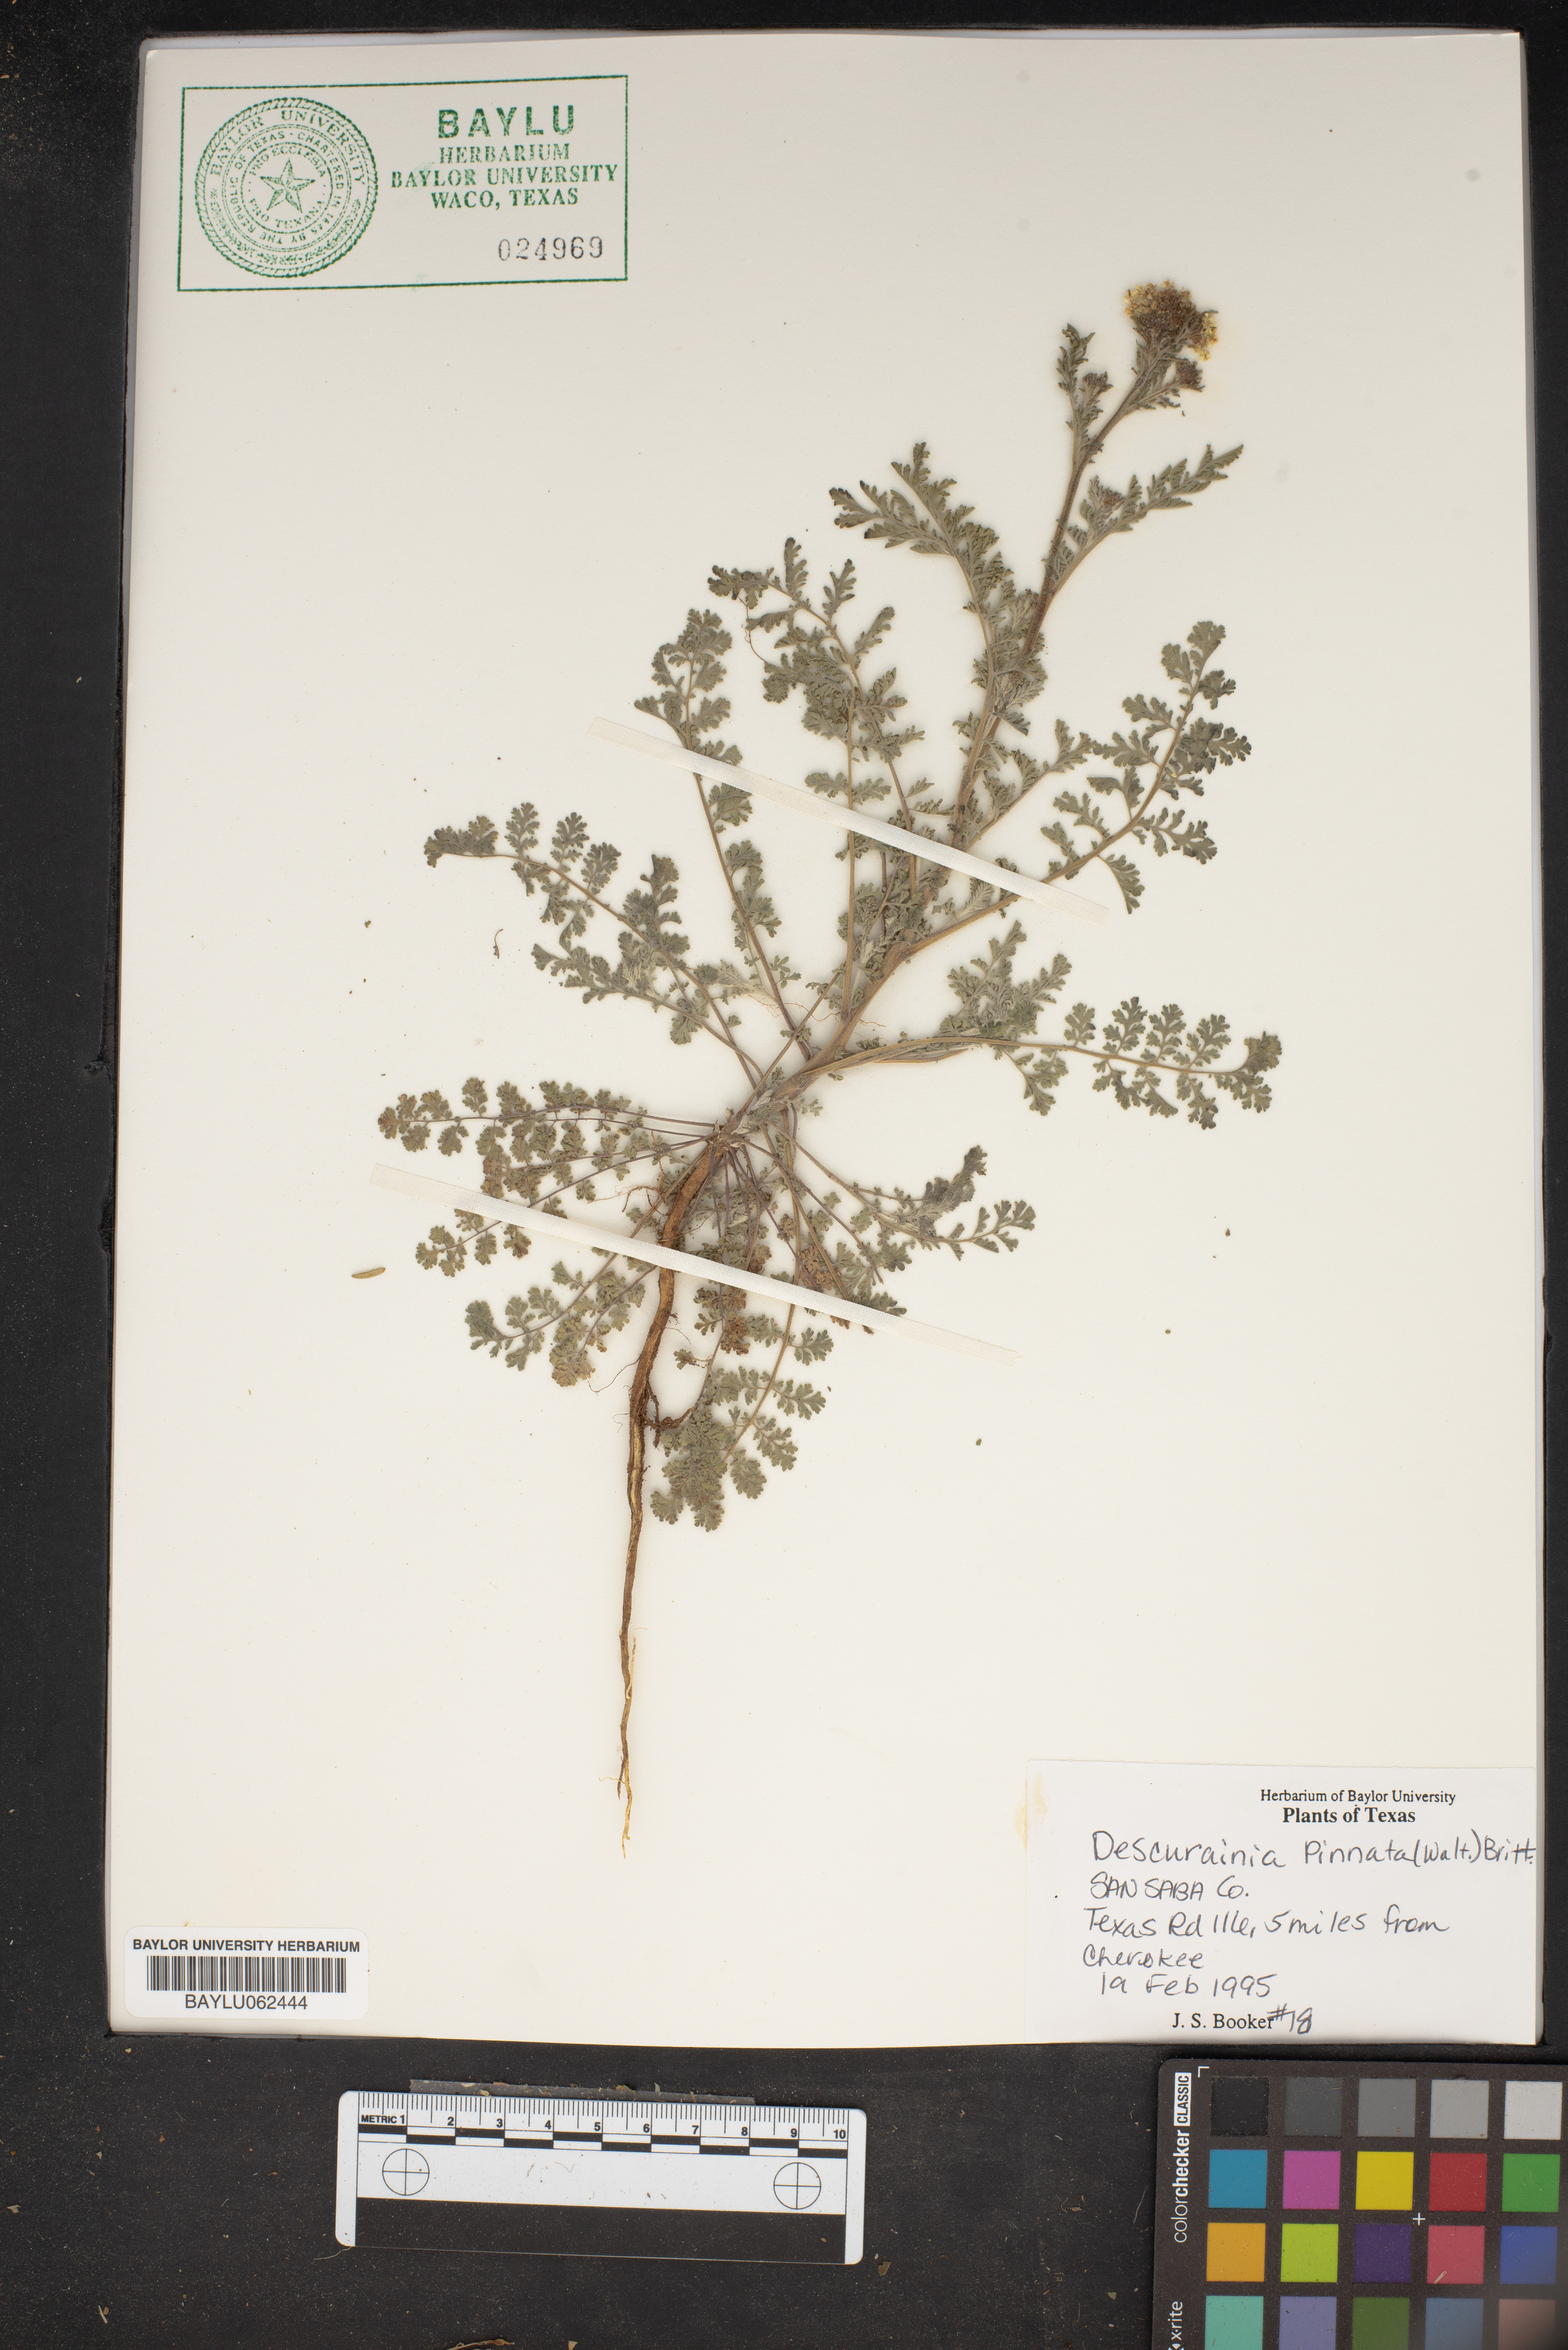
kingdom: Plantae
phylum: Tracheophyta
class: Magnoliopsida
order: Brassicales
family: Brassicaceae
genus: Descurainia
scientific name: Descurainia pinnata
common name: Western tansy mustard
